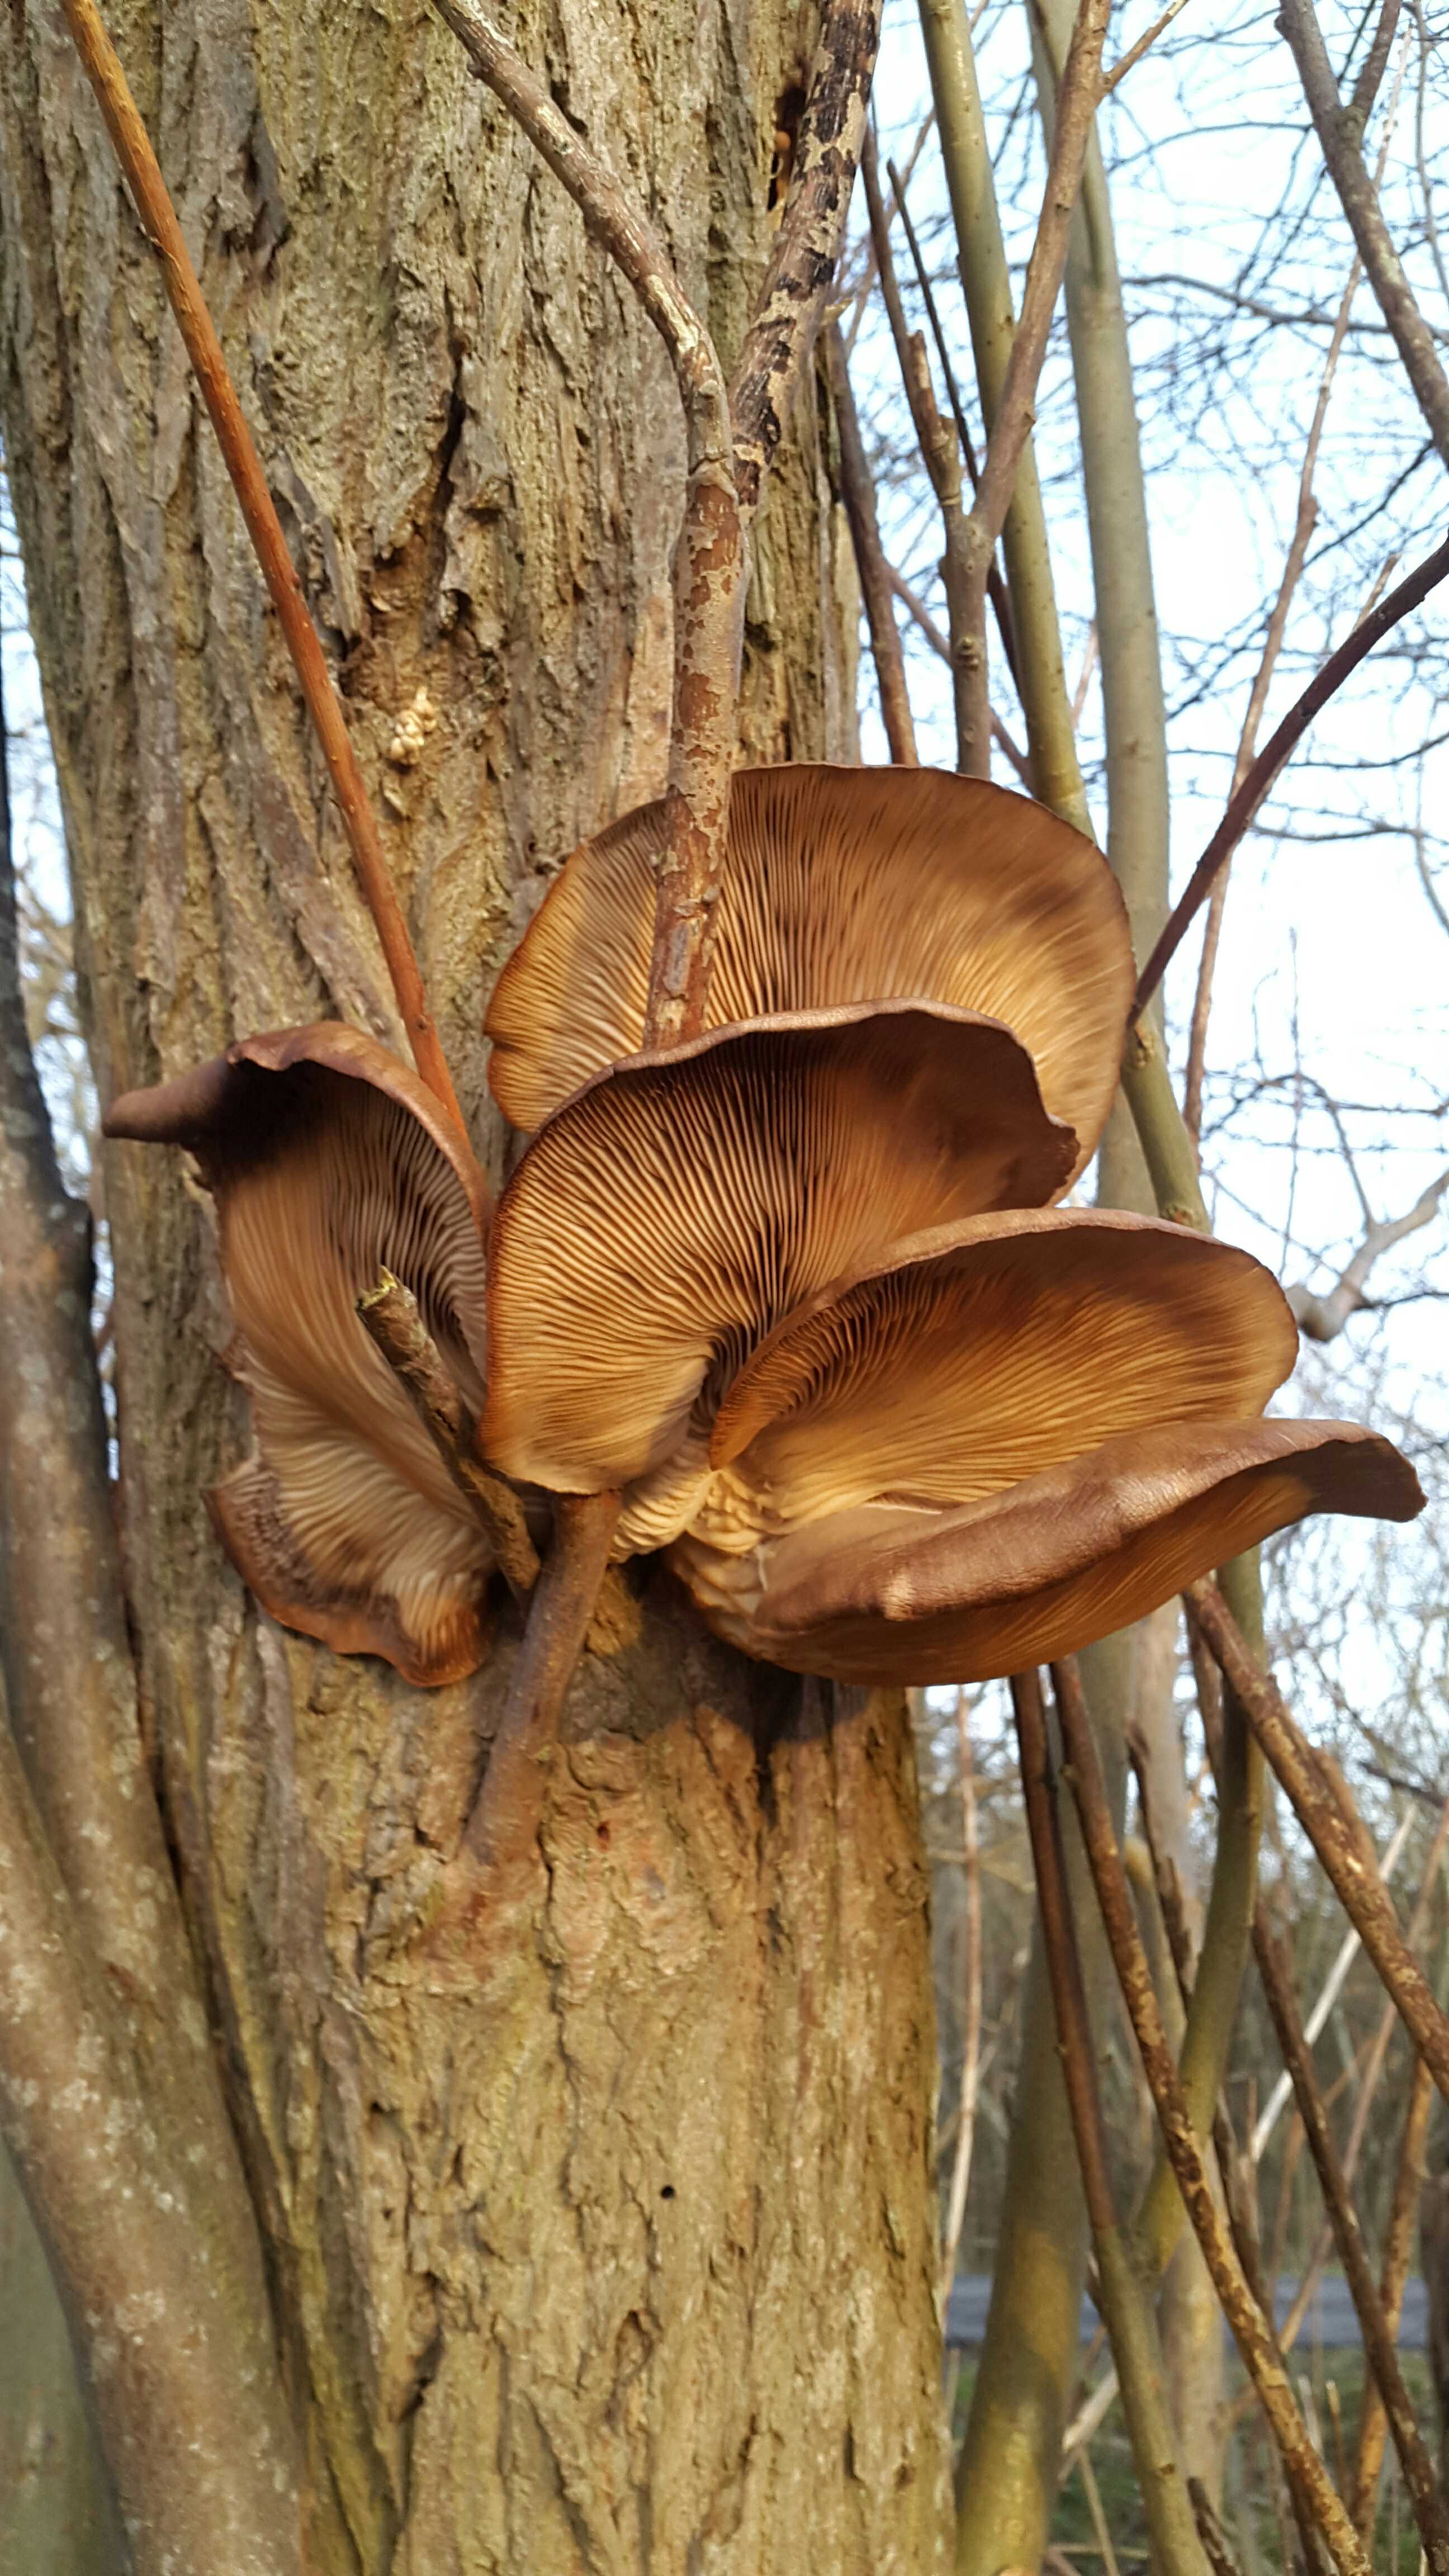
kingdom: Fungi
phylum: Basidiomycota
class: Agaricomycetes
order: Agaricales
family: Pleurotaceae
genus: Pleurotus
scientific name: Pleurotus ostreatus
